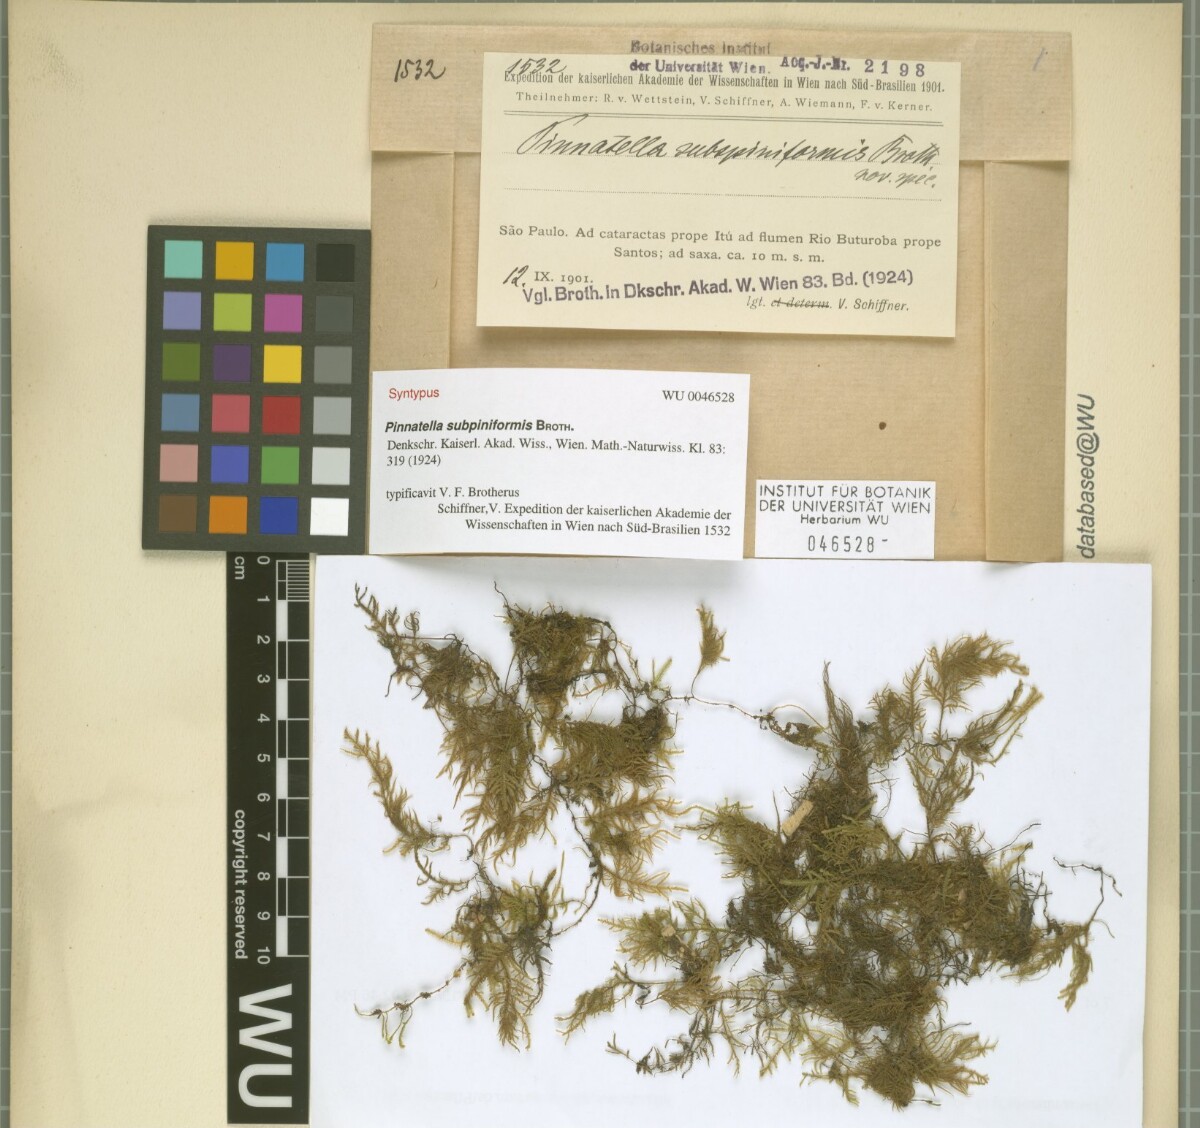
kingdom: Plantae
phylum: Bryophyta
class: Bryopsida
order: Hypnales
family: Orthostichellaceae
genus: Pinnatidendron
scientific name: Pinnatidendron piniforme
